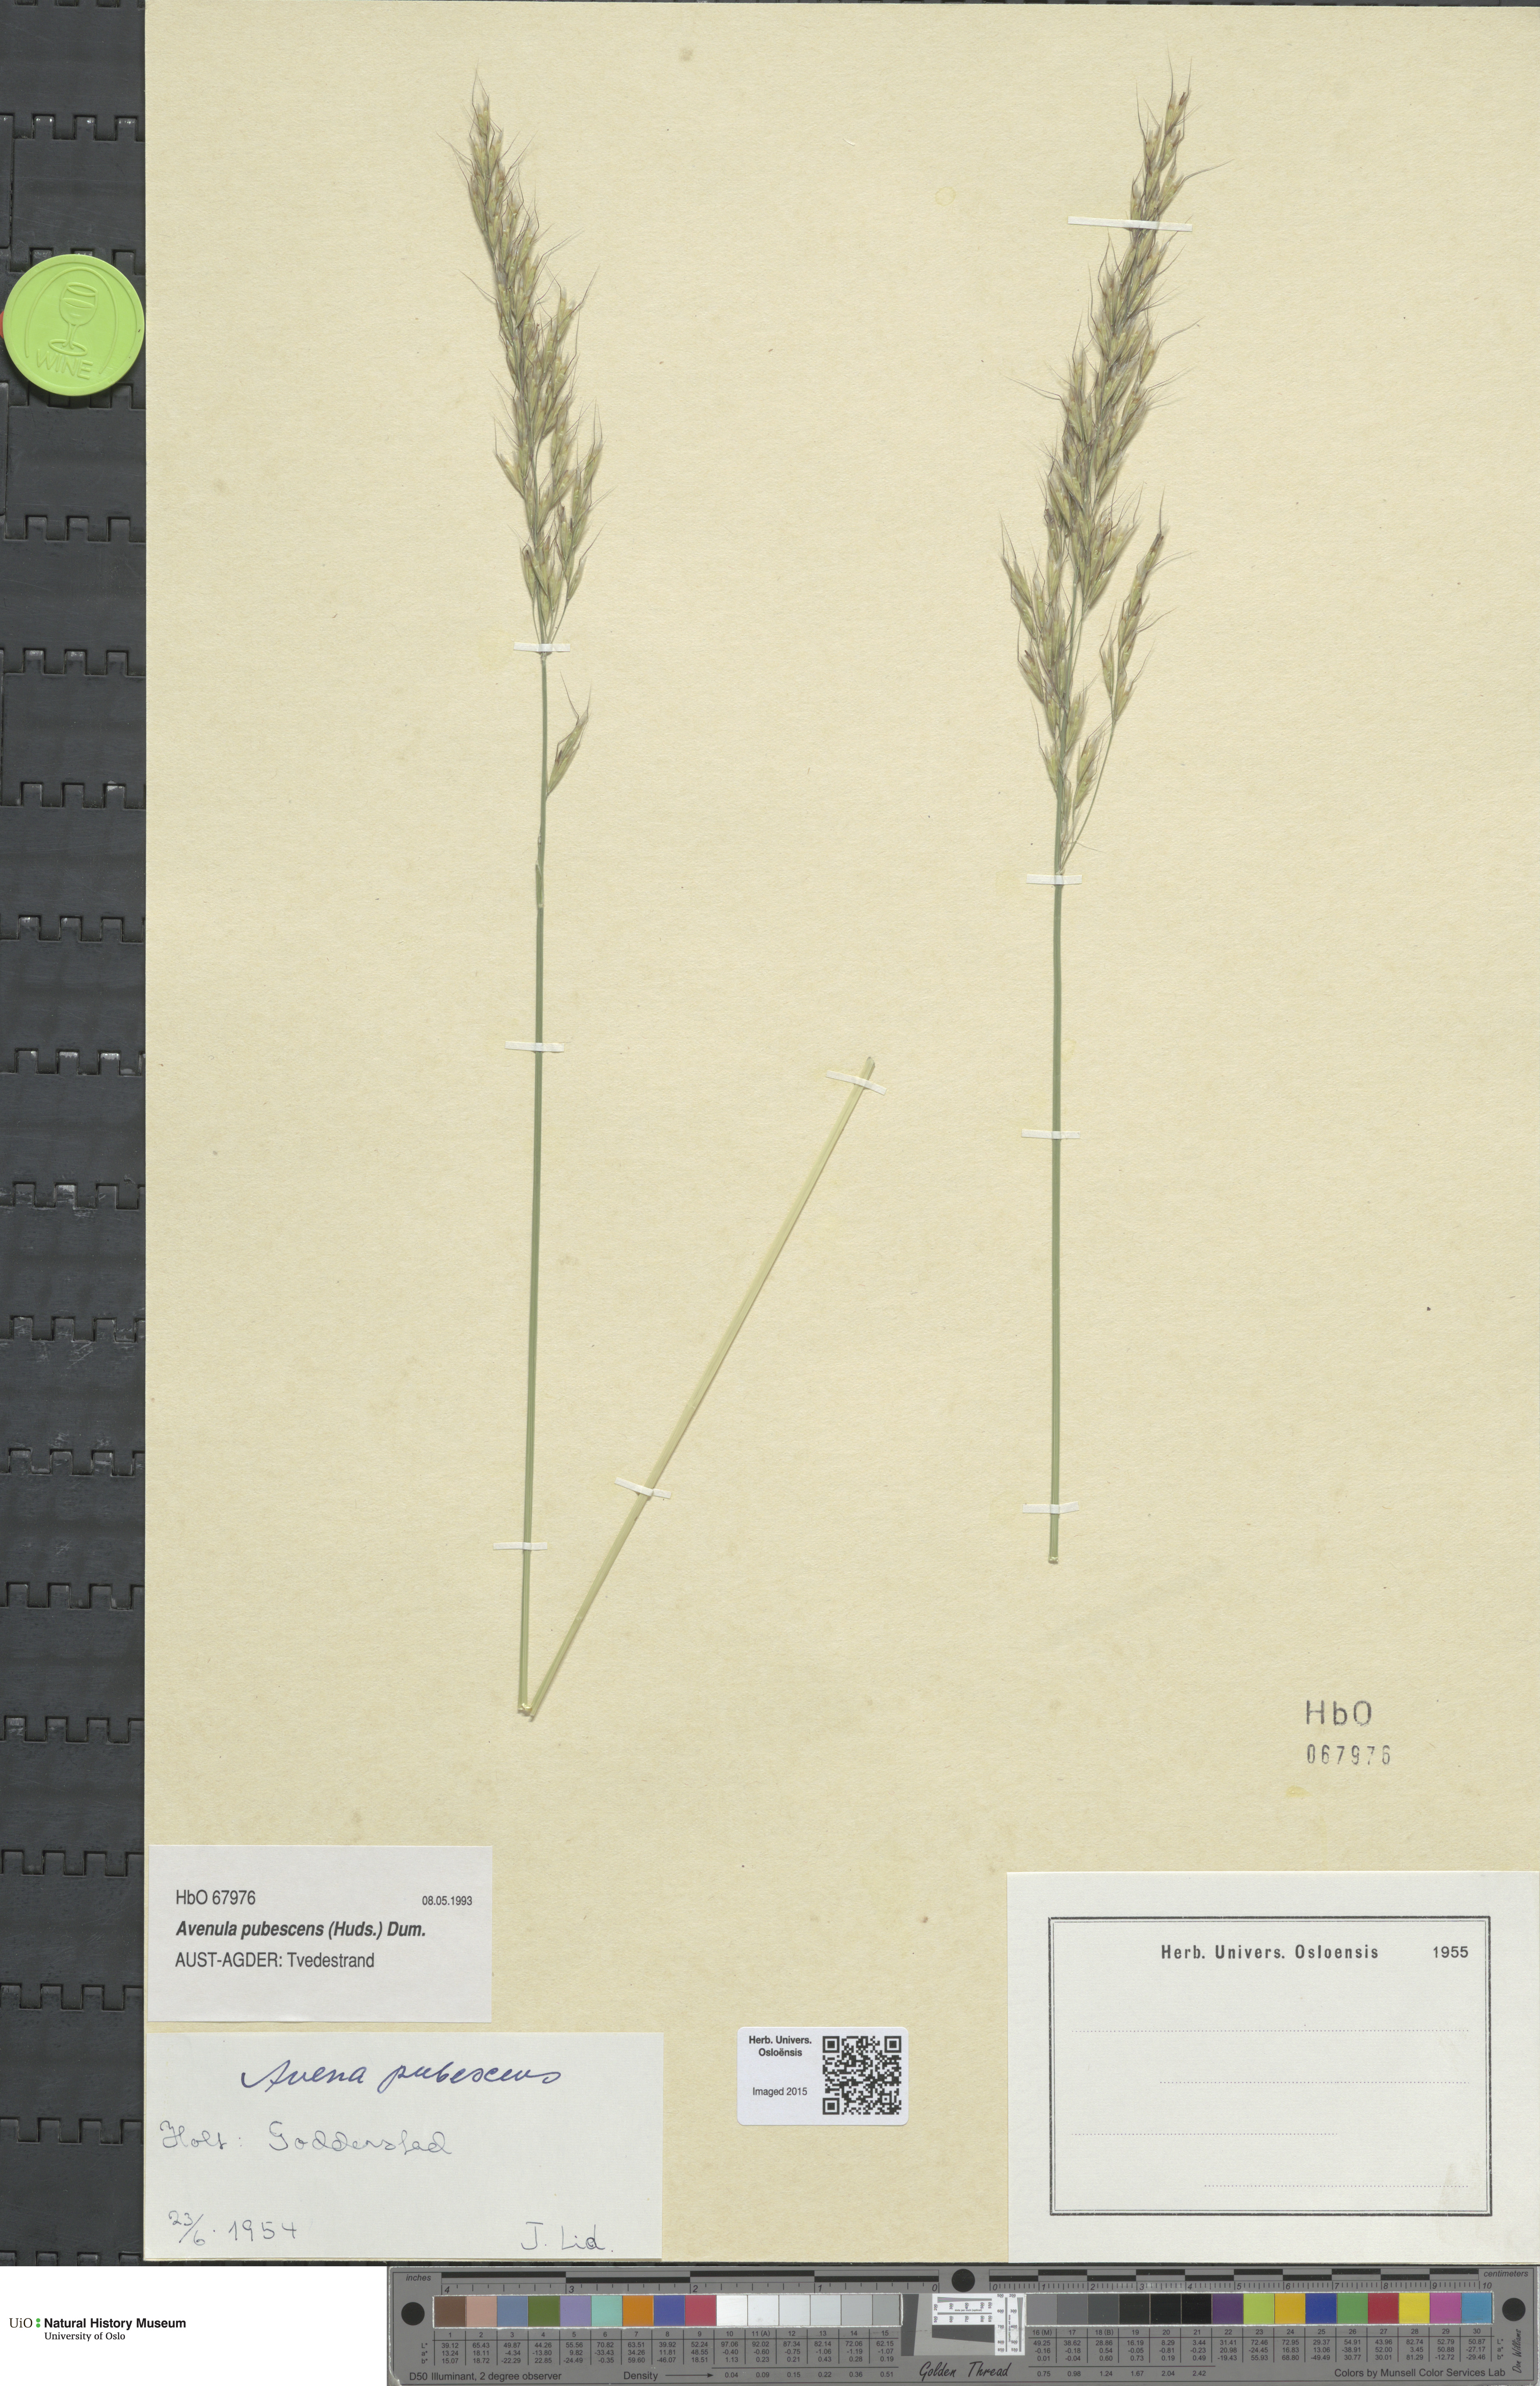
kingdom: Plantae
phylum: Tracheophyta
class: Liliopsida
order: Poales
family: Poaceae
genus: Avenula
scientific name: Avenula pubescens
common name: Downy alpine oatgrass
